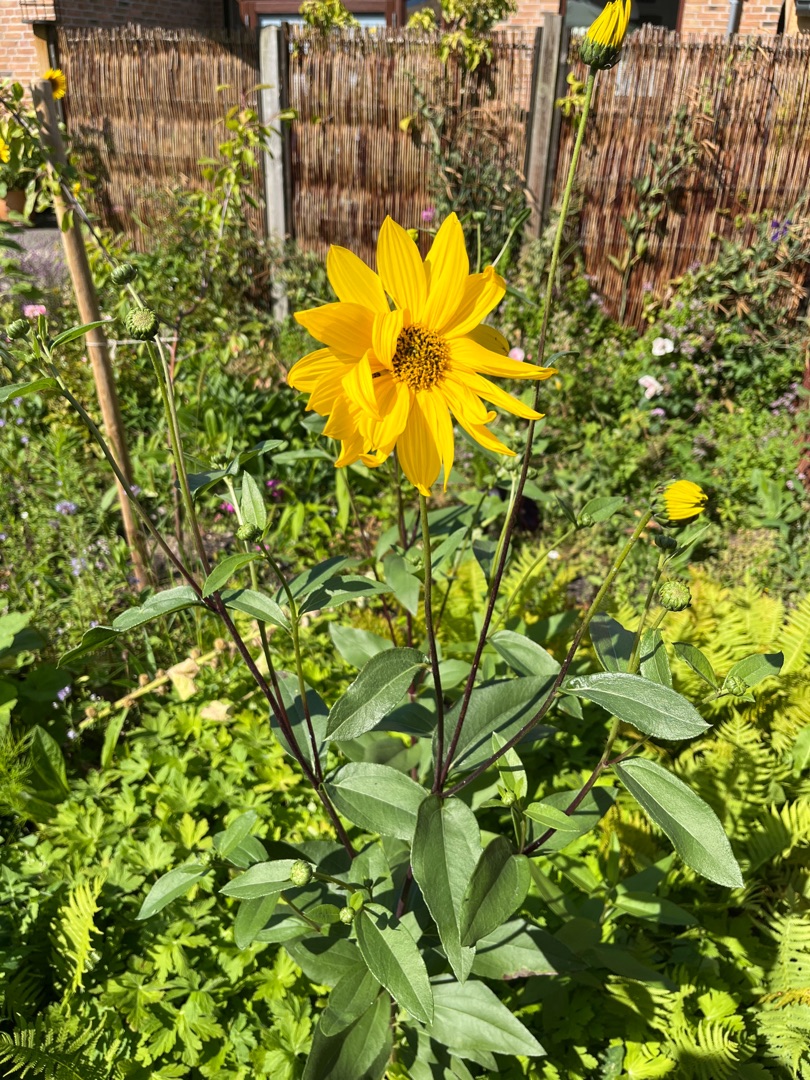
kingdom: Plantae
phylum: Tracheophyta
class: Magnoliopsida
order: Asterales
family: Asteraceae
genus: Helianthus
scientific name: Helianthus pauciflorus
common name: Staude-solsikke
